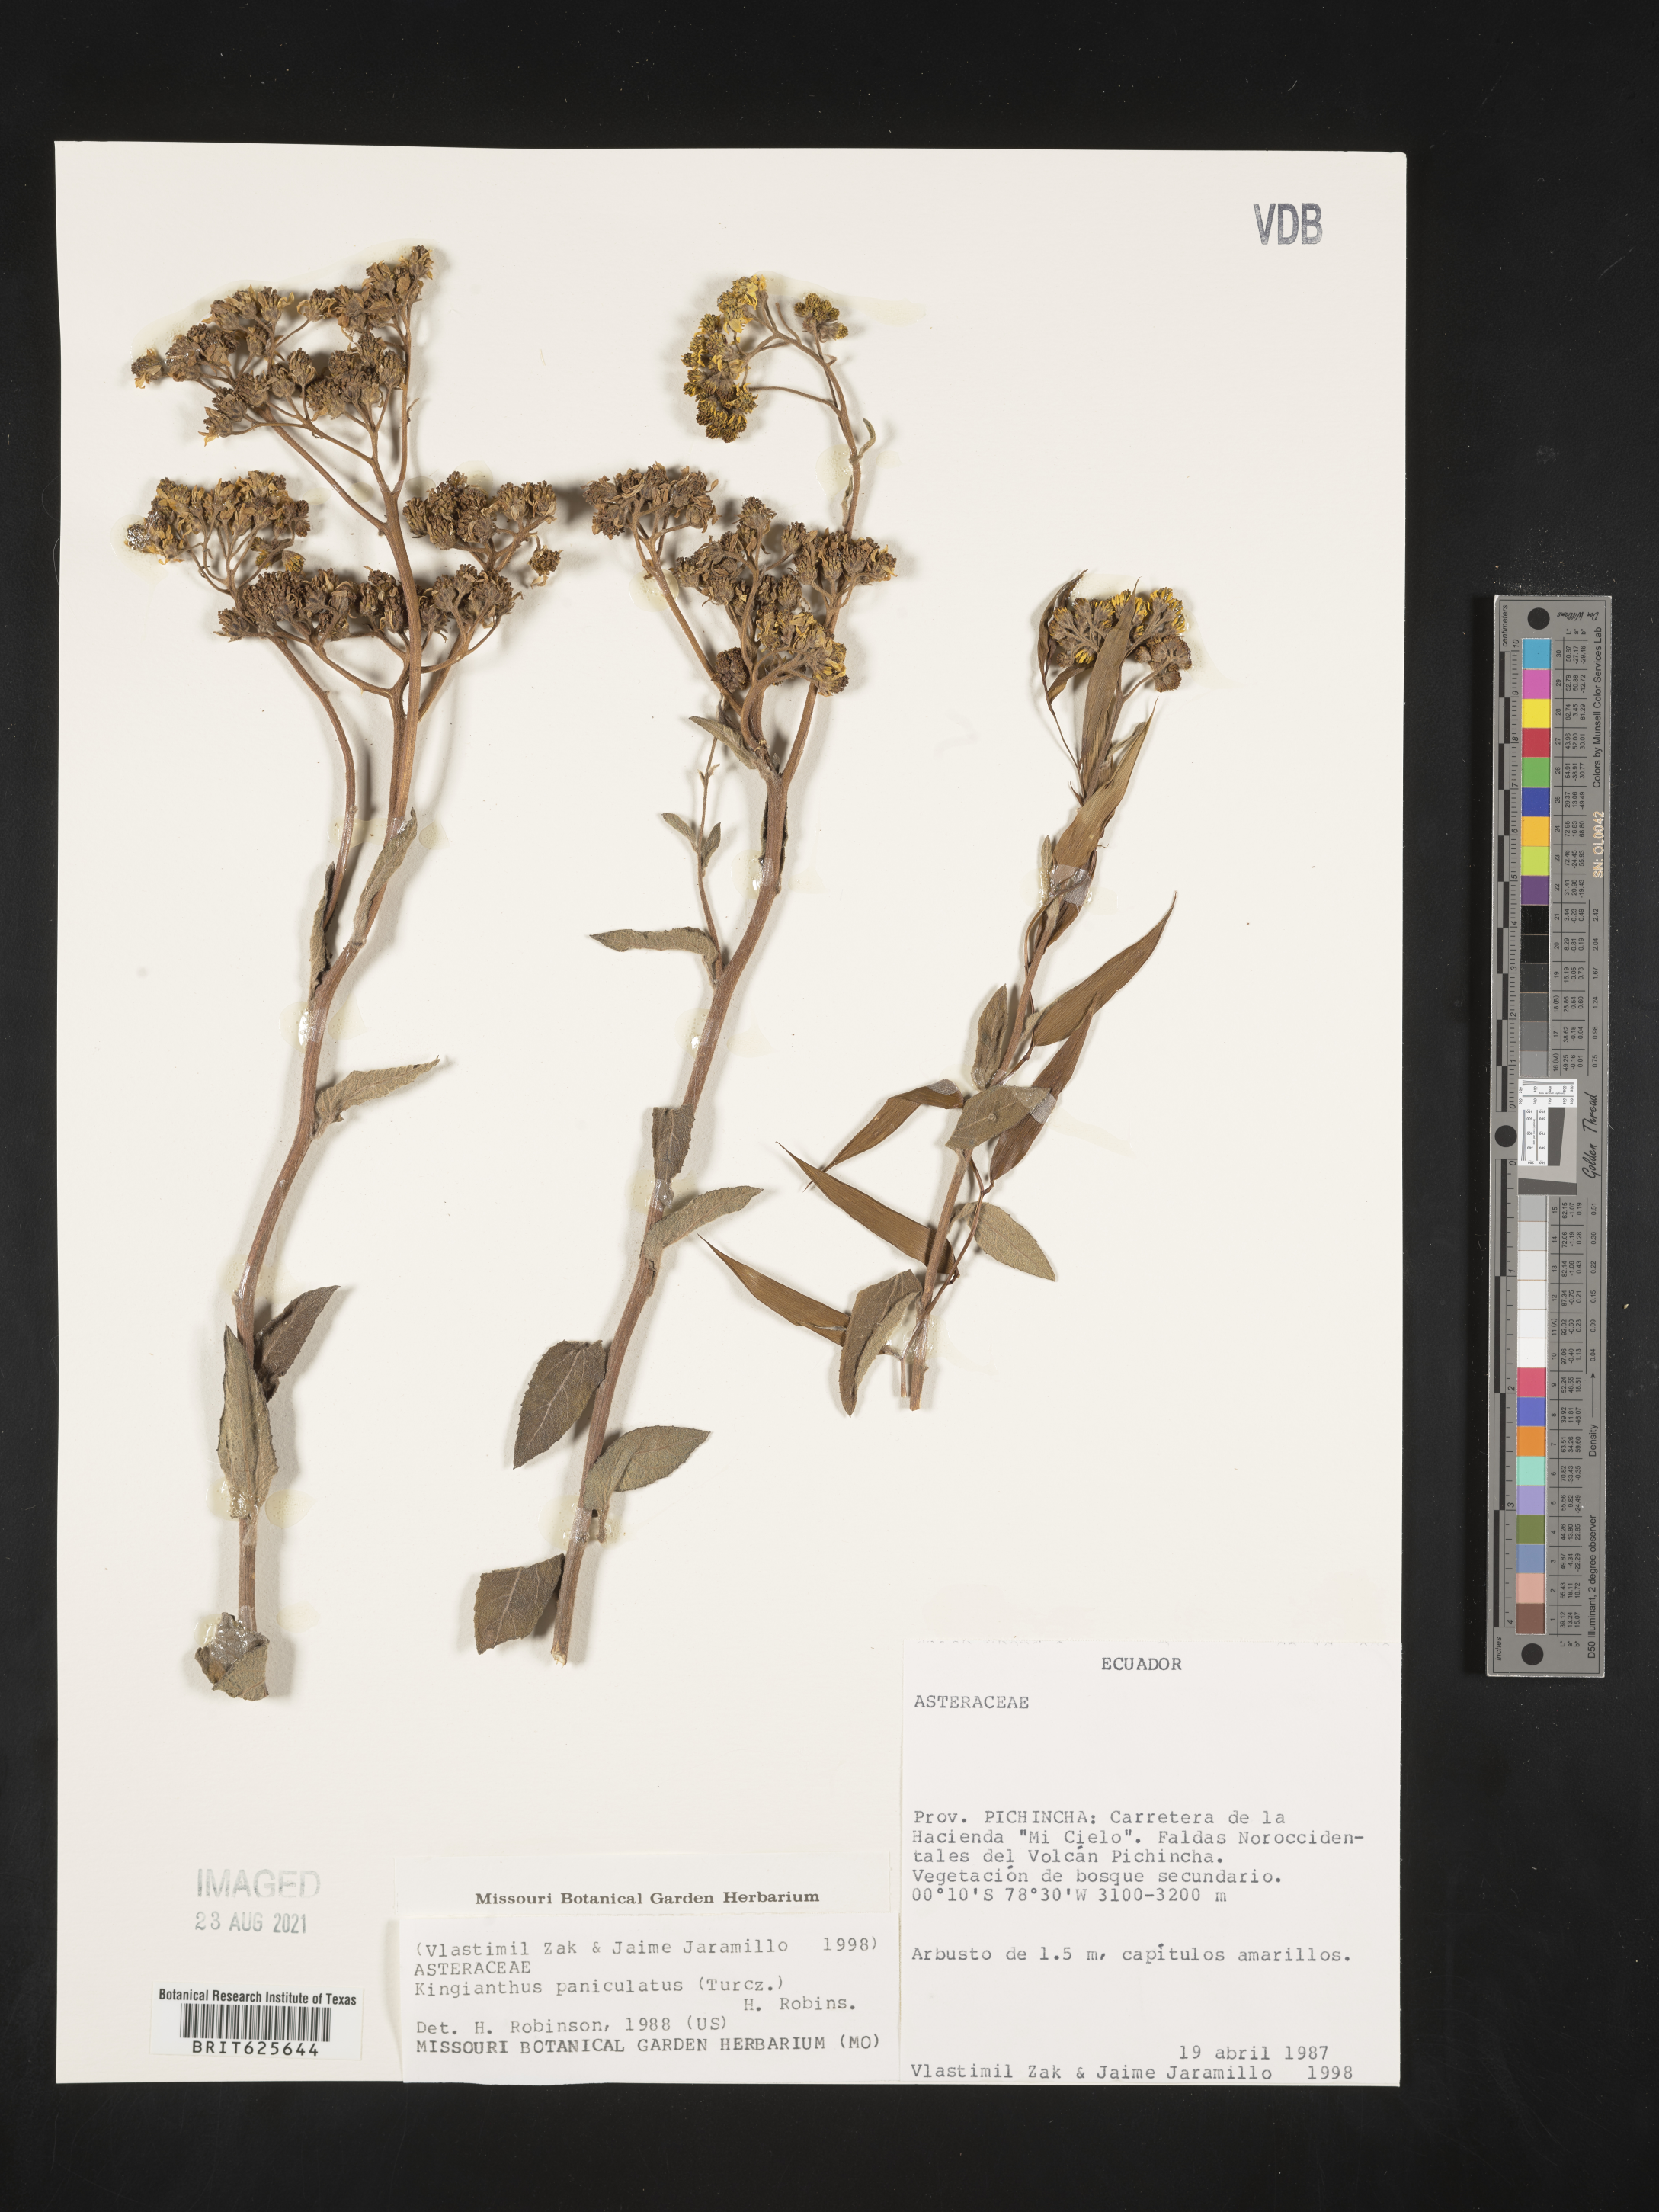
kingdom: Plantae
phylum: Tracheophyta
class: Magnoliopsida
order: Asterales
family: Asteraceae
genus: Kingianthus
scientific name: Kingianthus
